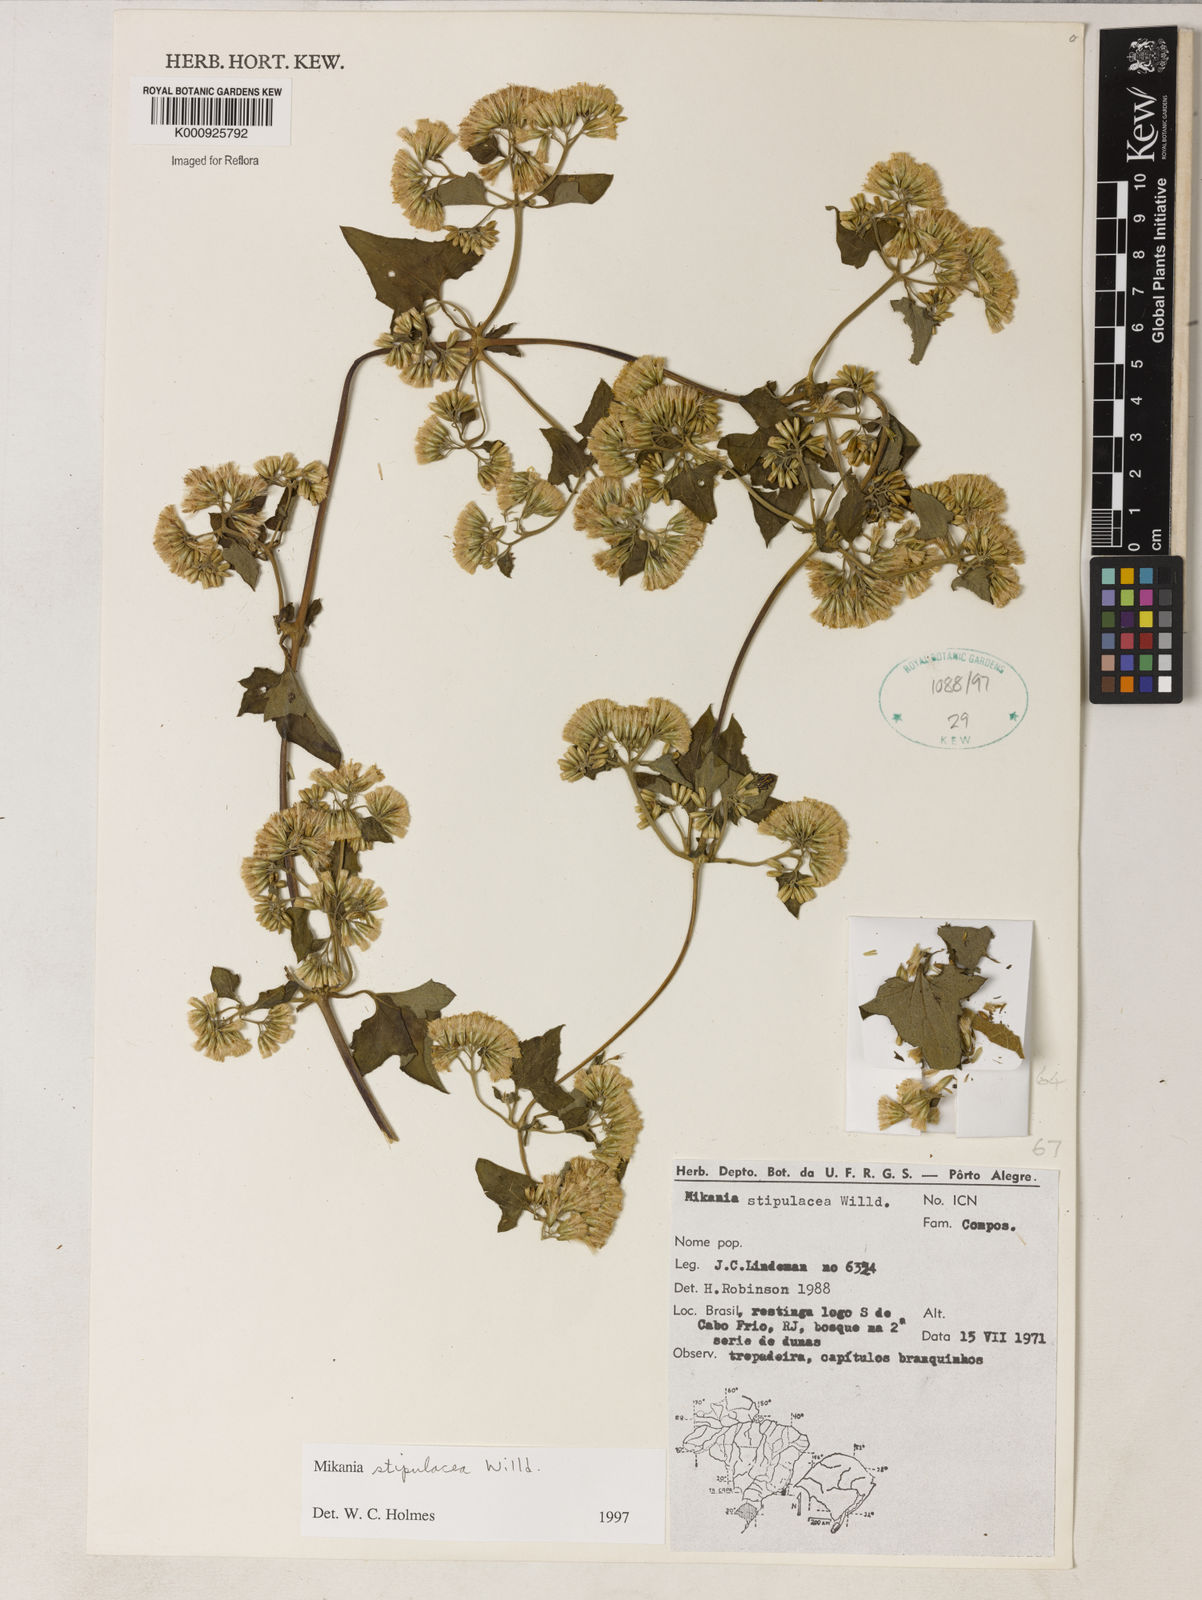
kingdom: Plantae
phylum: Tracheophyta
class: Magnoliopsida
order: Asterales
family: Asteraceae
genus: Mikania
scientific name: Mikania stipulacea
